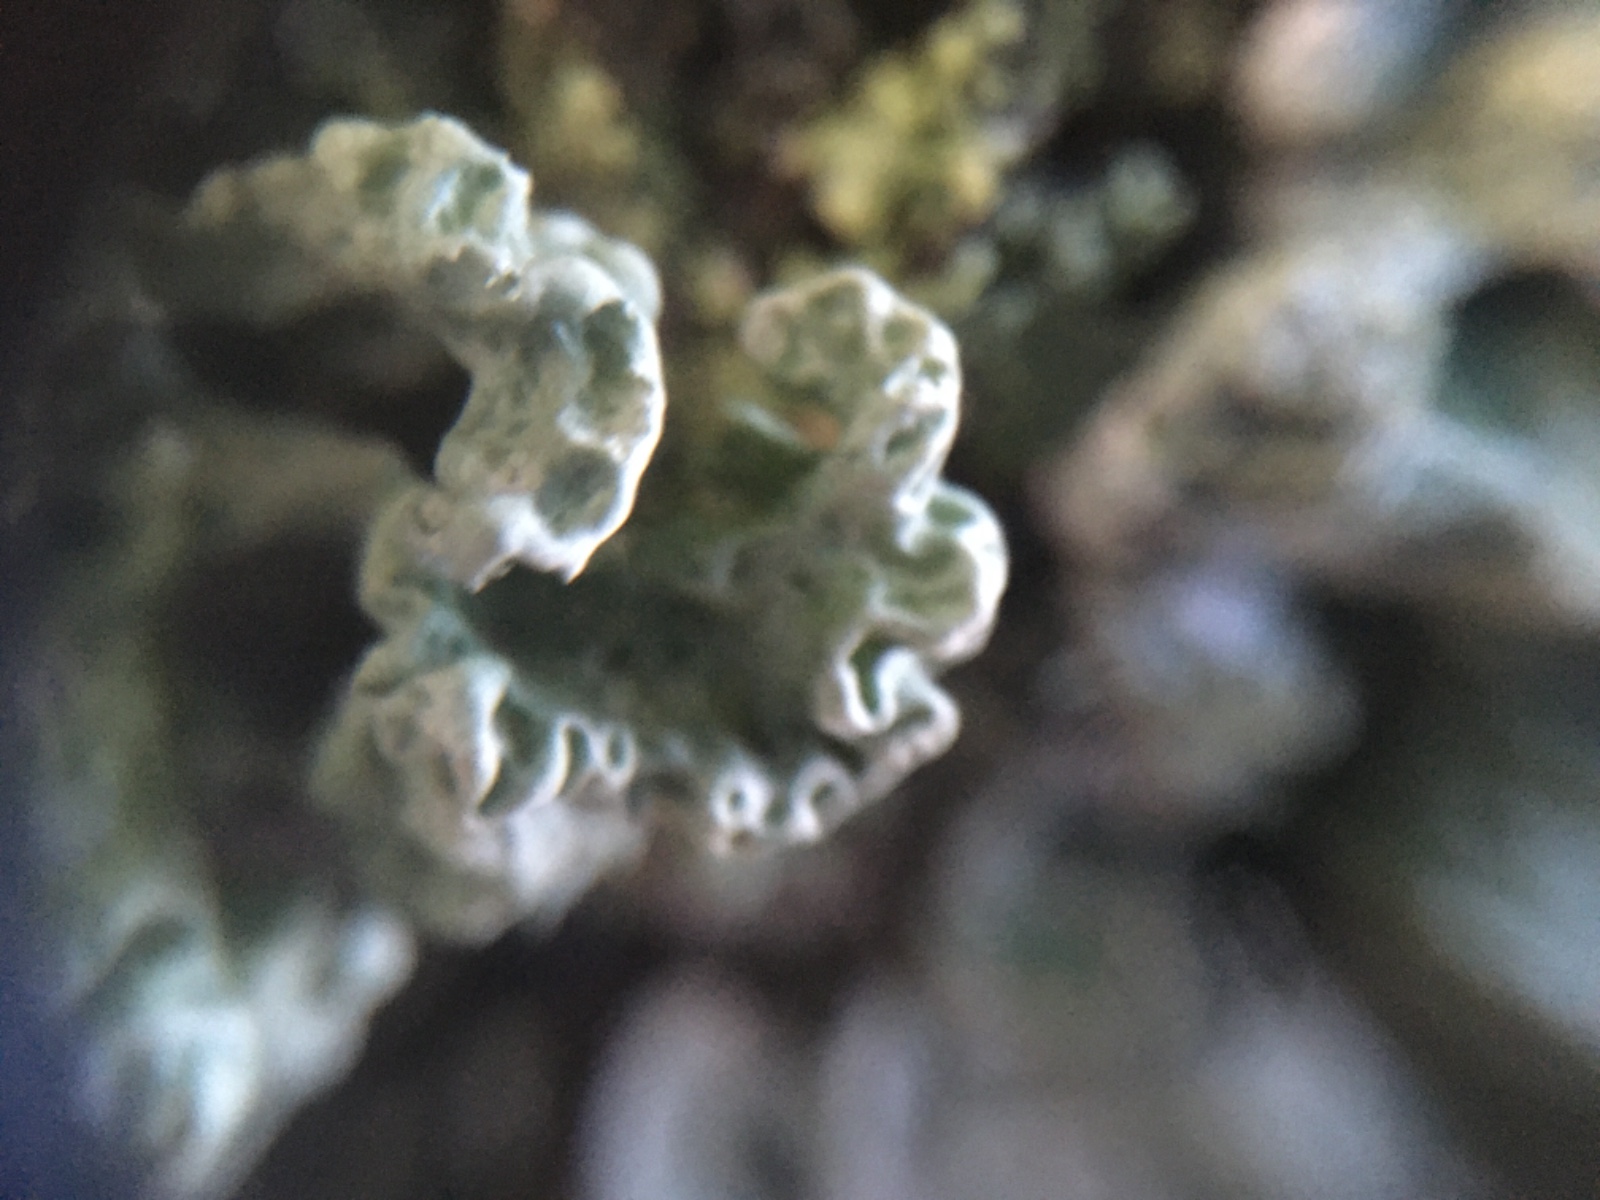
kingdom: Fungi
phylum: Ascomycota
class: Lecanoromycetes
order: Lecanorales
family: Ramalinaceae
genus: Ramalina
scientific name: Ramalina fastigiata
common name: tue-grenlav
